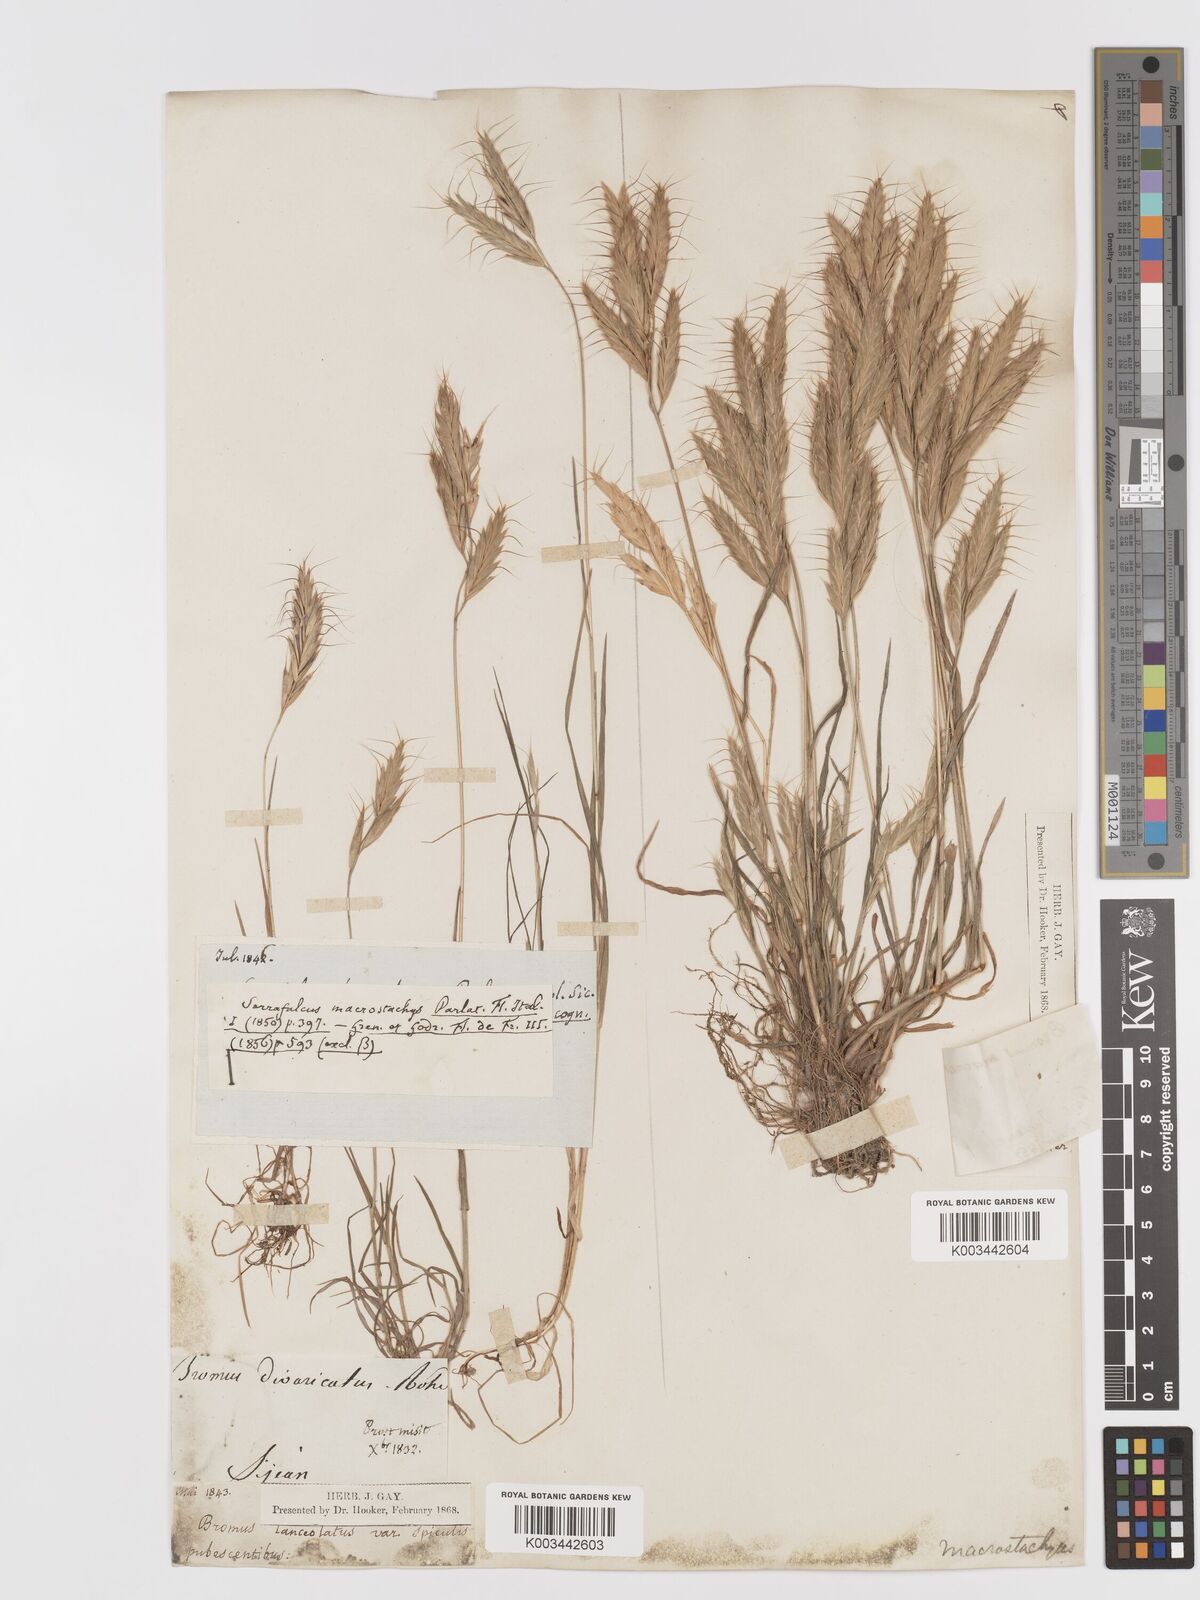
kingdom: Plantae
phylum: Tracheophyta
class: Liliopsida
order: Poales
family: Poaceae
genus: Bromus
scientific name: Bromus lanceolatus
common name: Mediterranean brome
